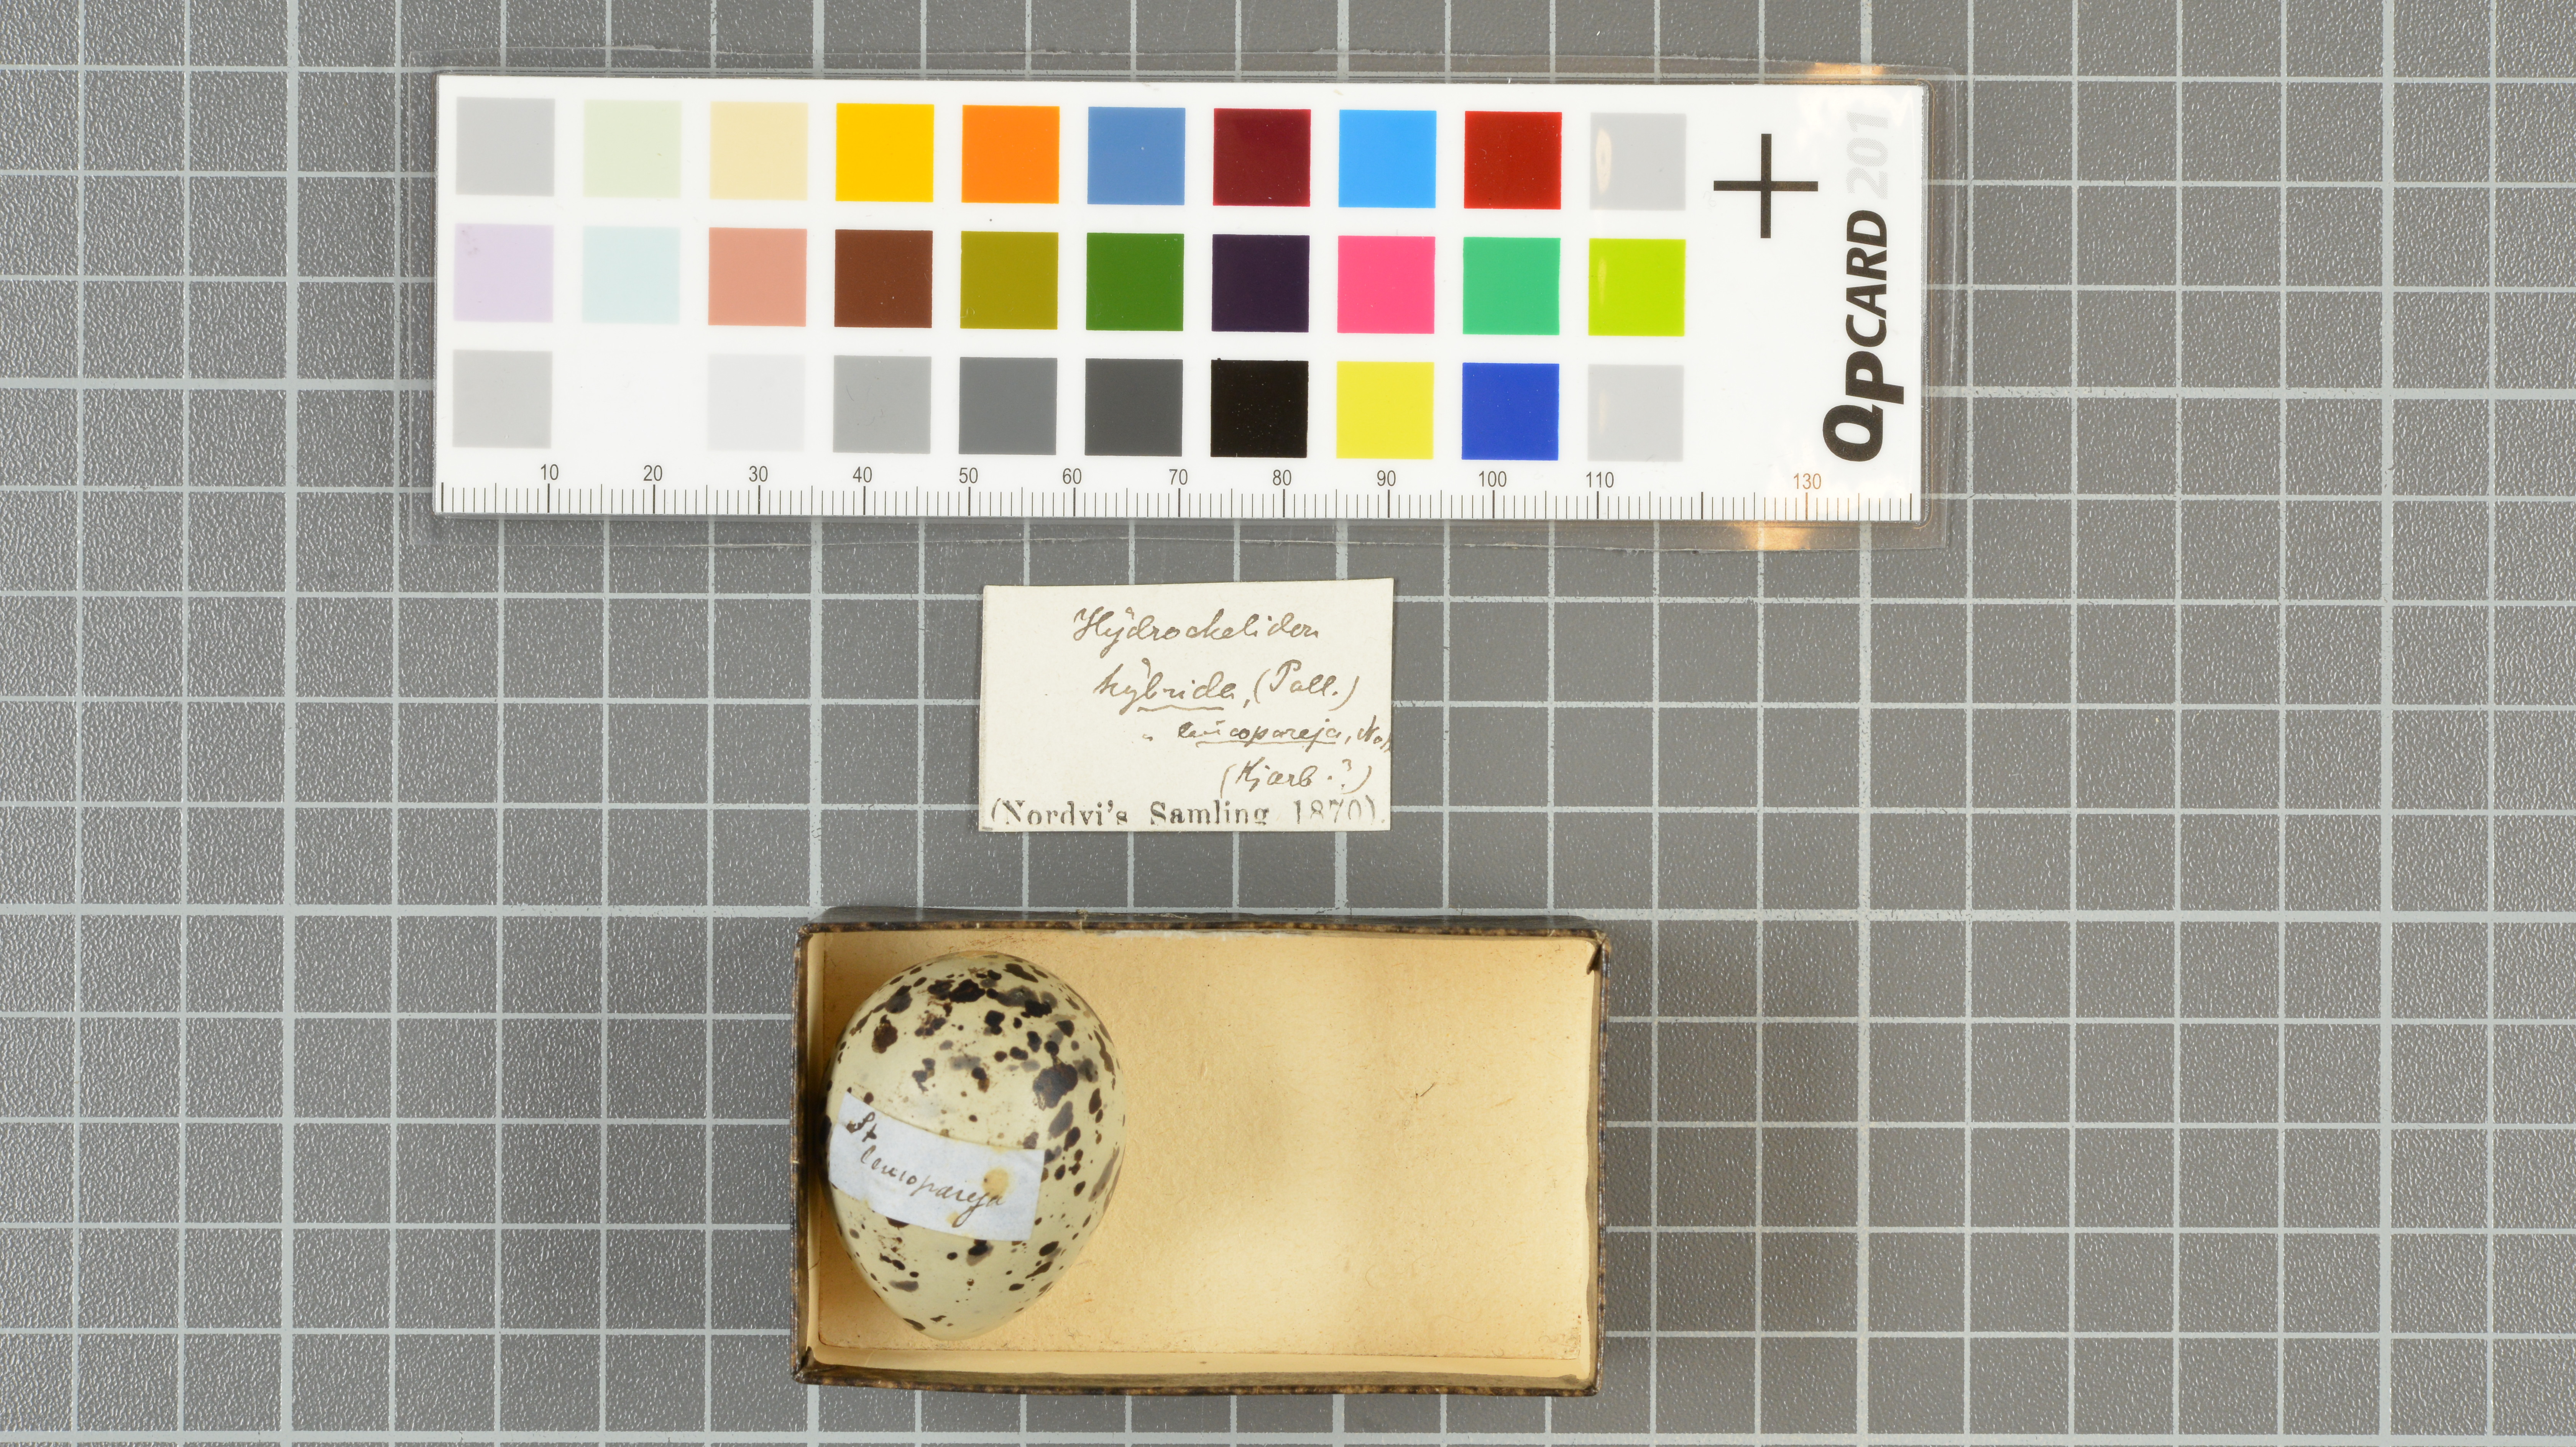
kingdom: Animalia
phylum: Chordata
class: Aves
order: Charadriiformes
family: Laridae
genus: Chlidonias
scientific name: Chlidonias hybrida
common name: Whiskered tern
